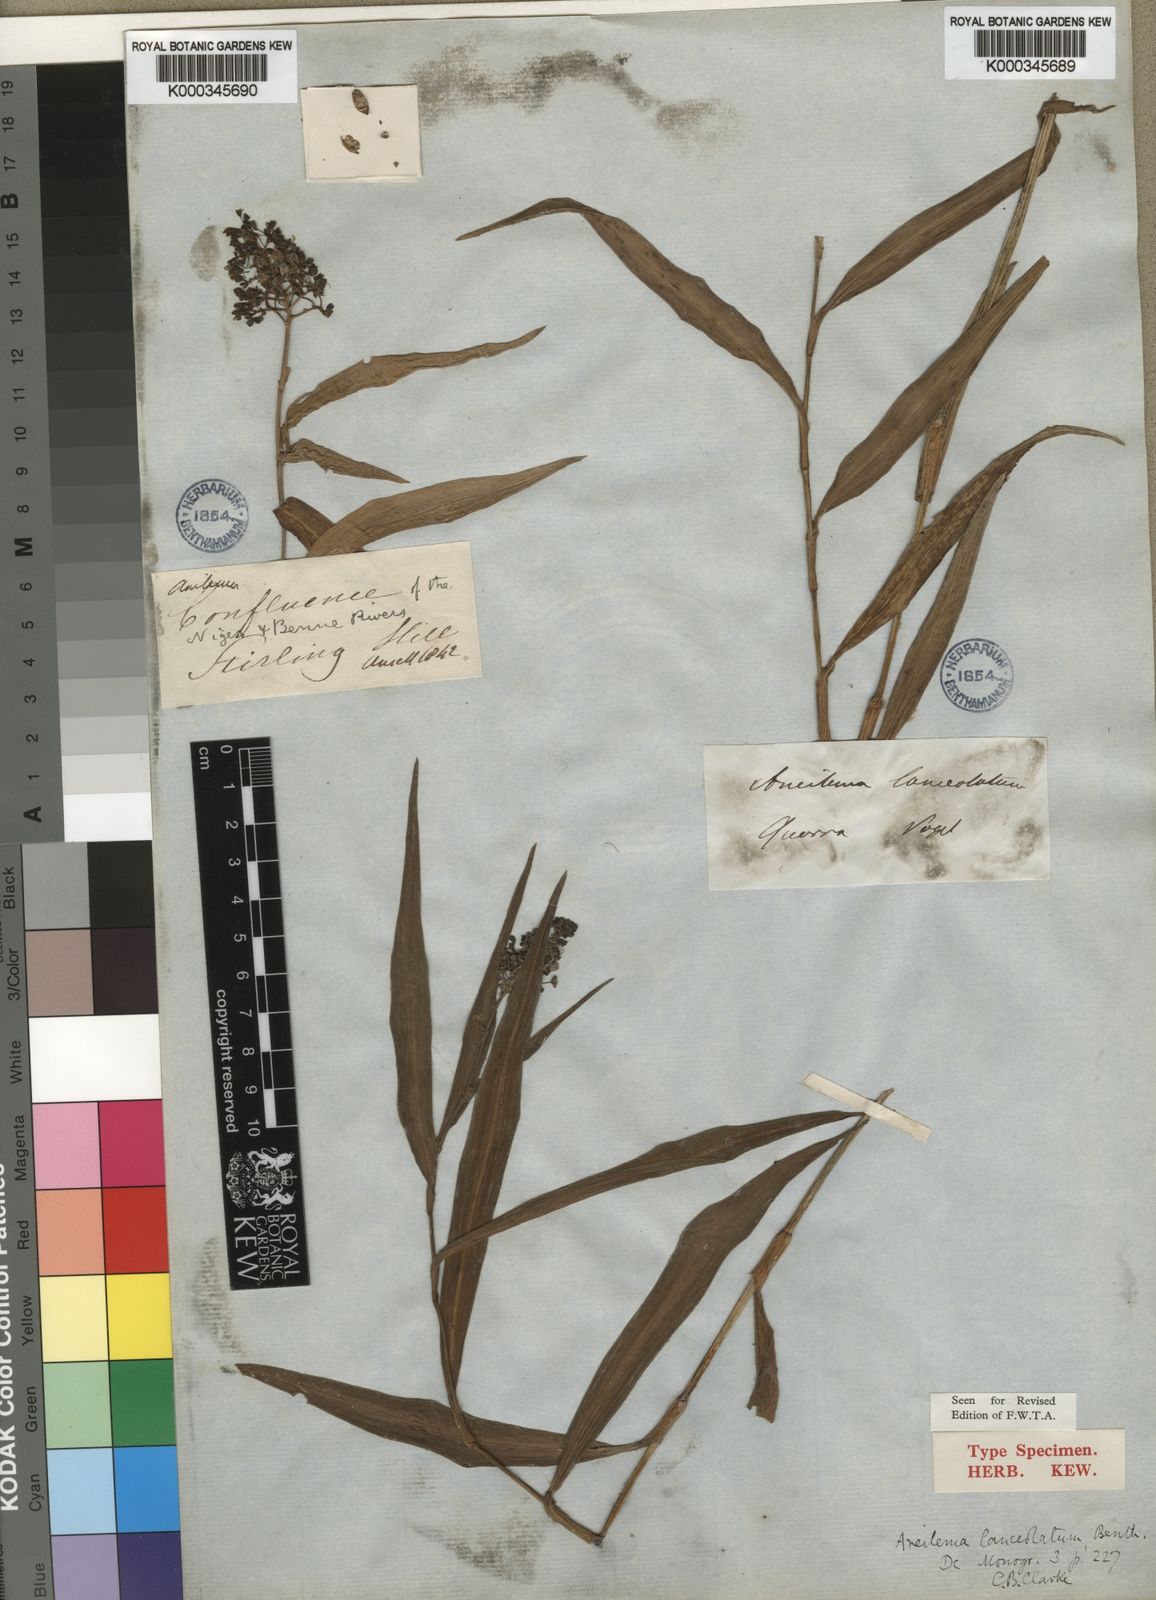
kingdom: Plantae
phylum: Tracheophyta
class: Liliopsida
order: Commelinales
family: Commelinaceae
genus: Aneilema
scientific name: Aneilema lanceolatum
